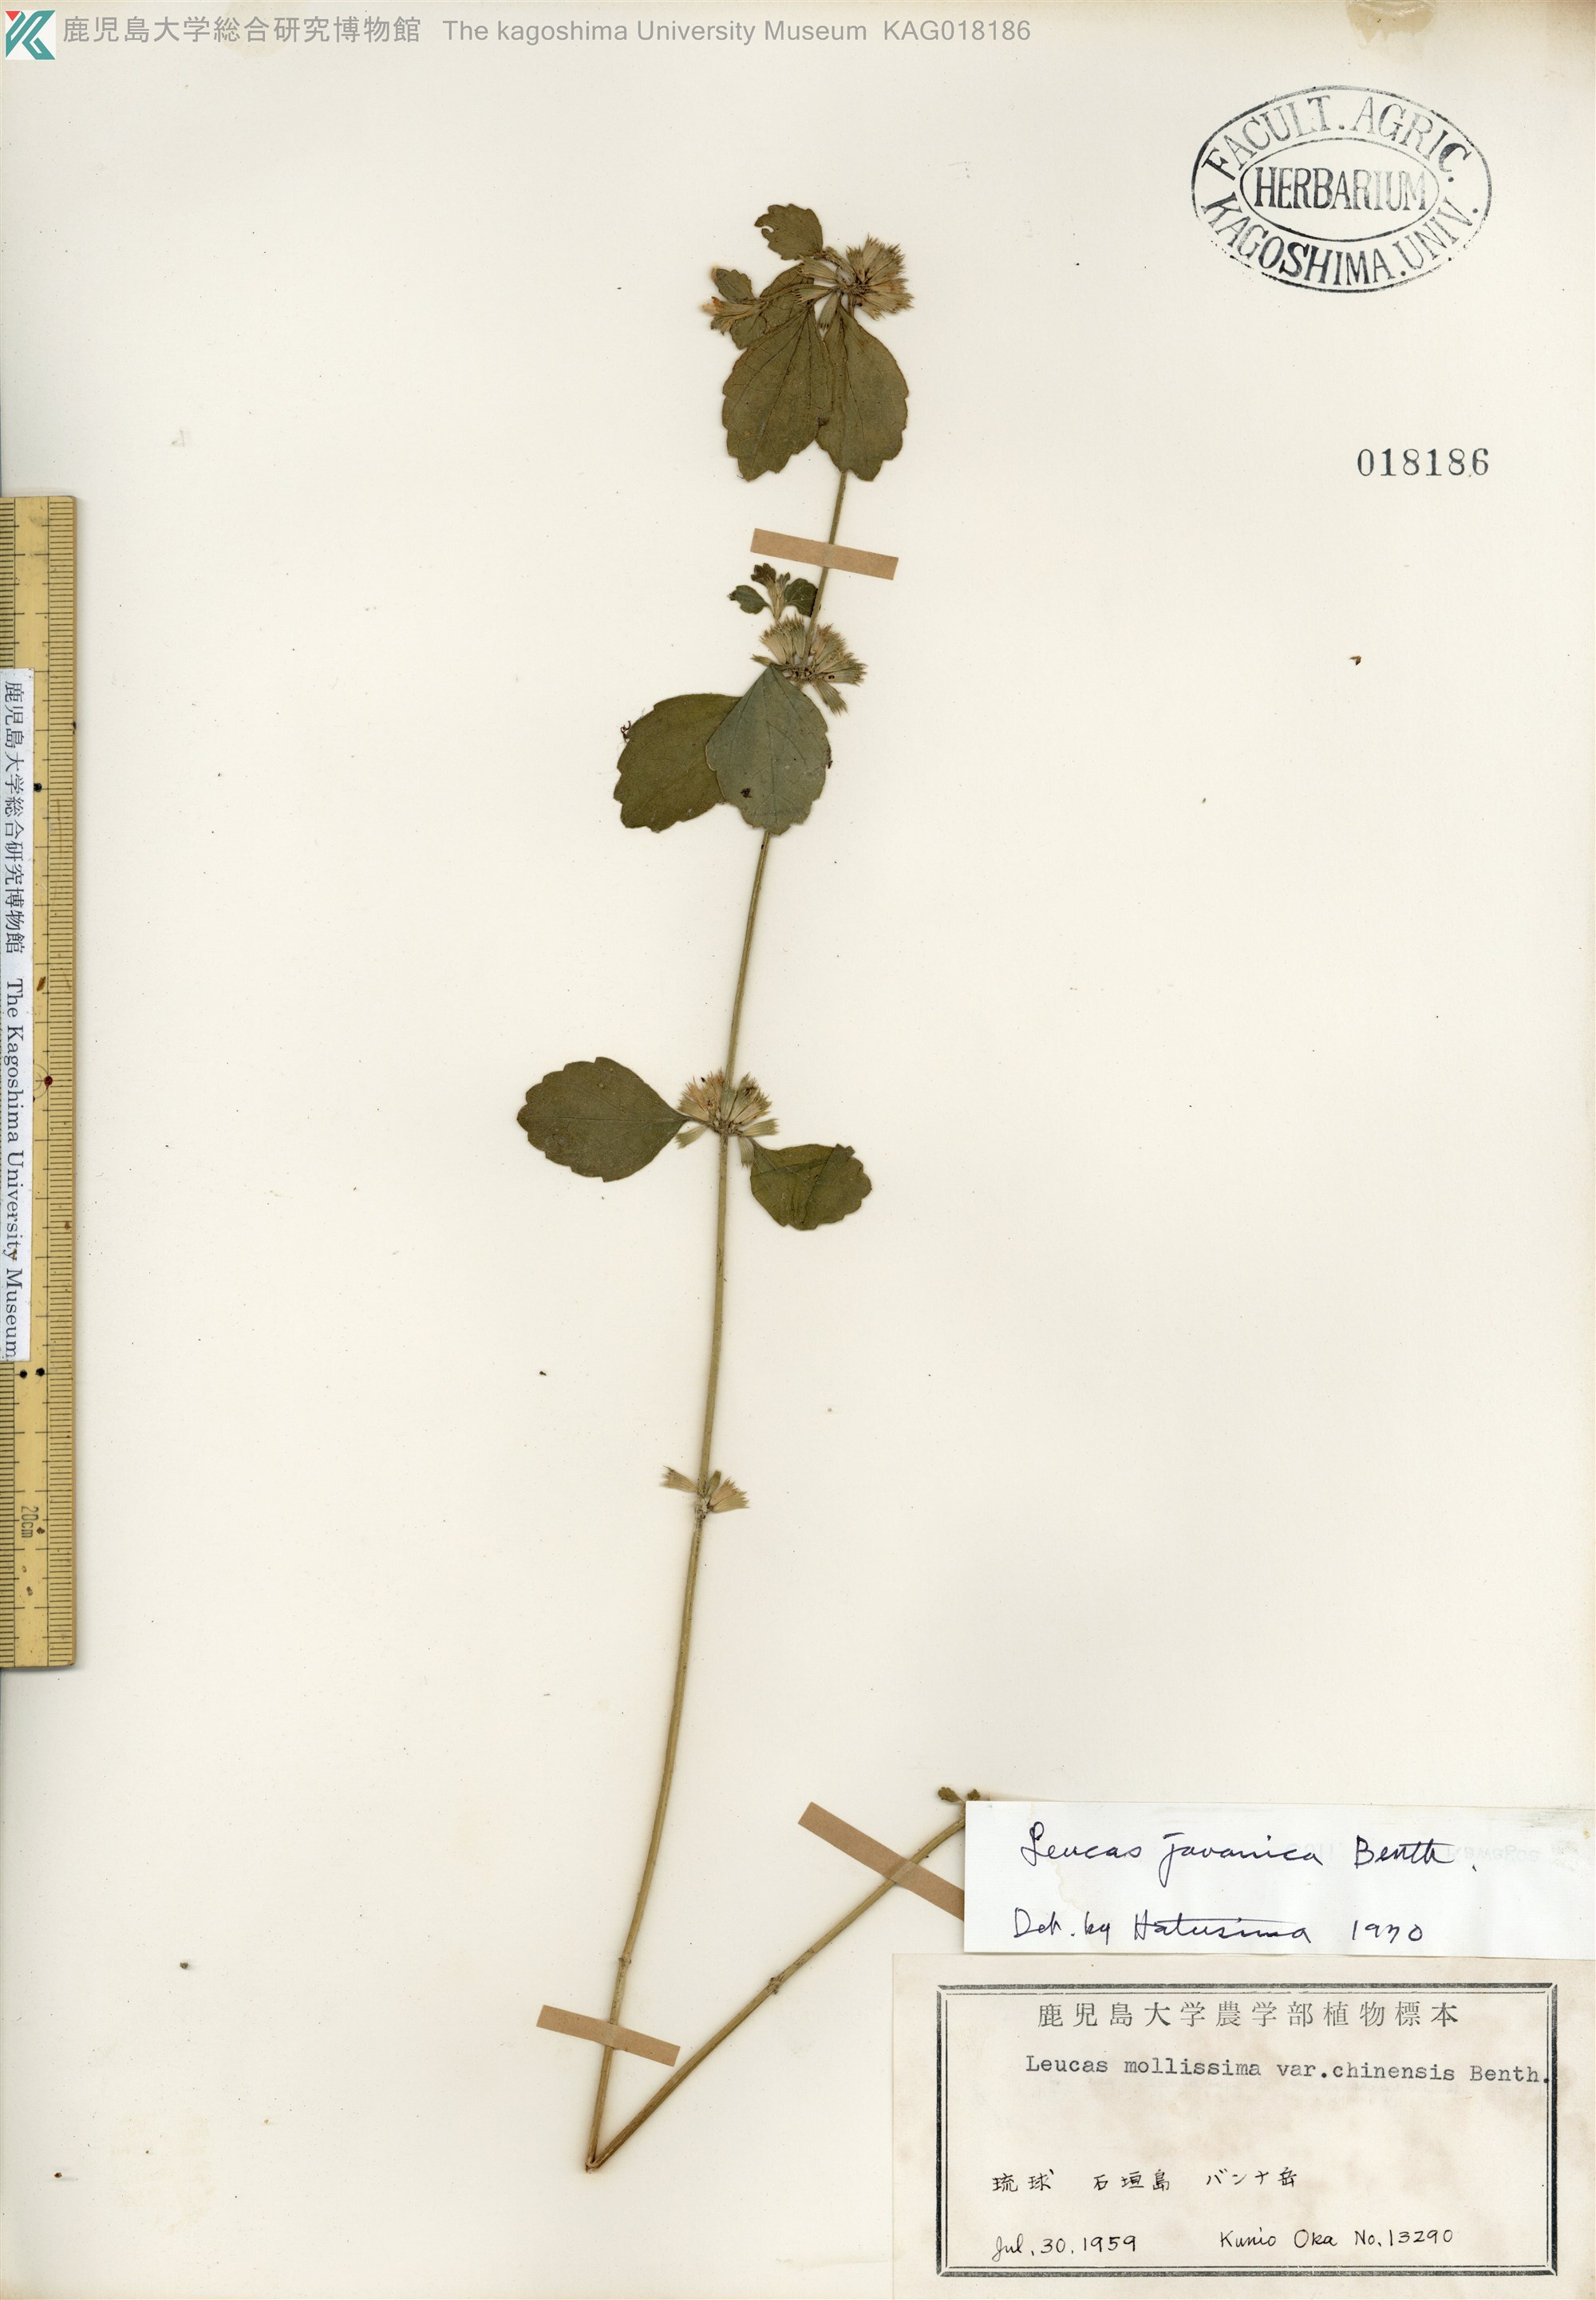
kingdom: Plantae
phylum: Tracheophyta
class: Magnoliopsida
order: Lamiales
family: Lamiaceae
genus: Leucas
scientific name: Leucas chinensis
